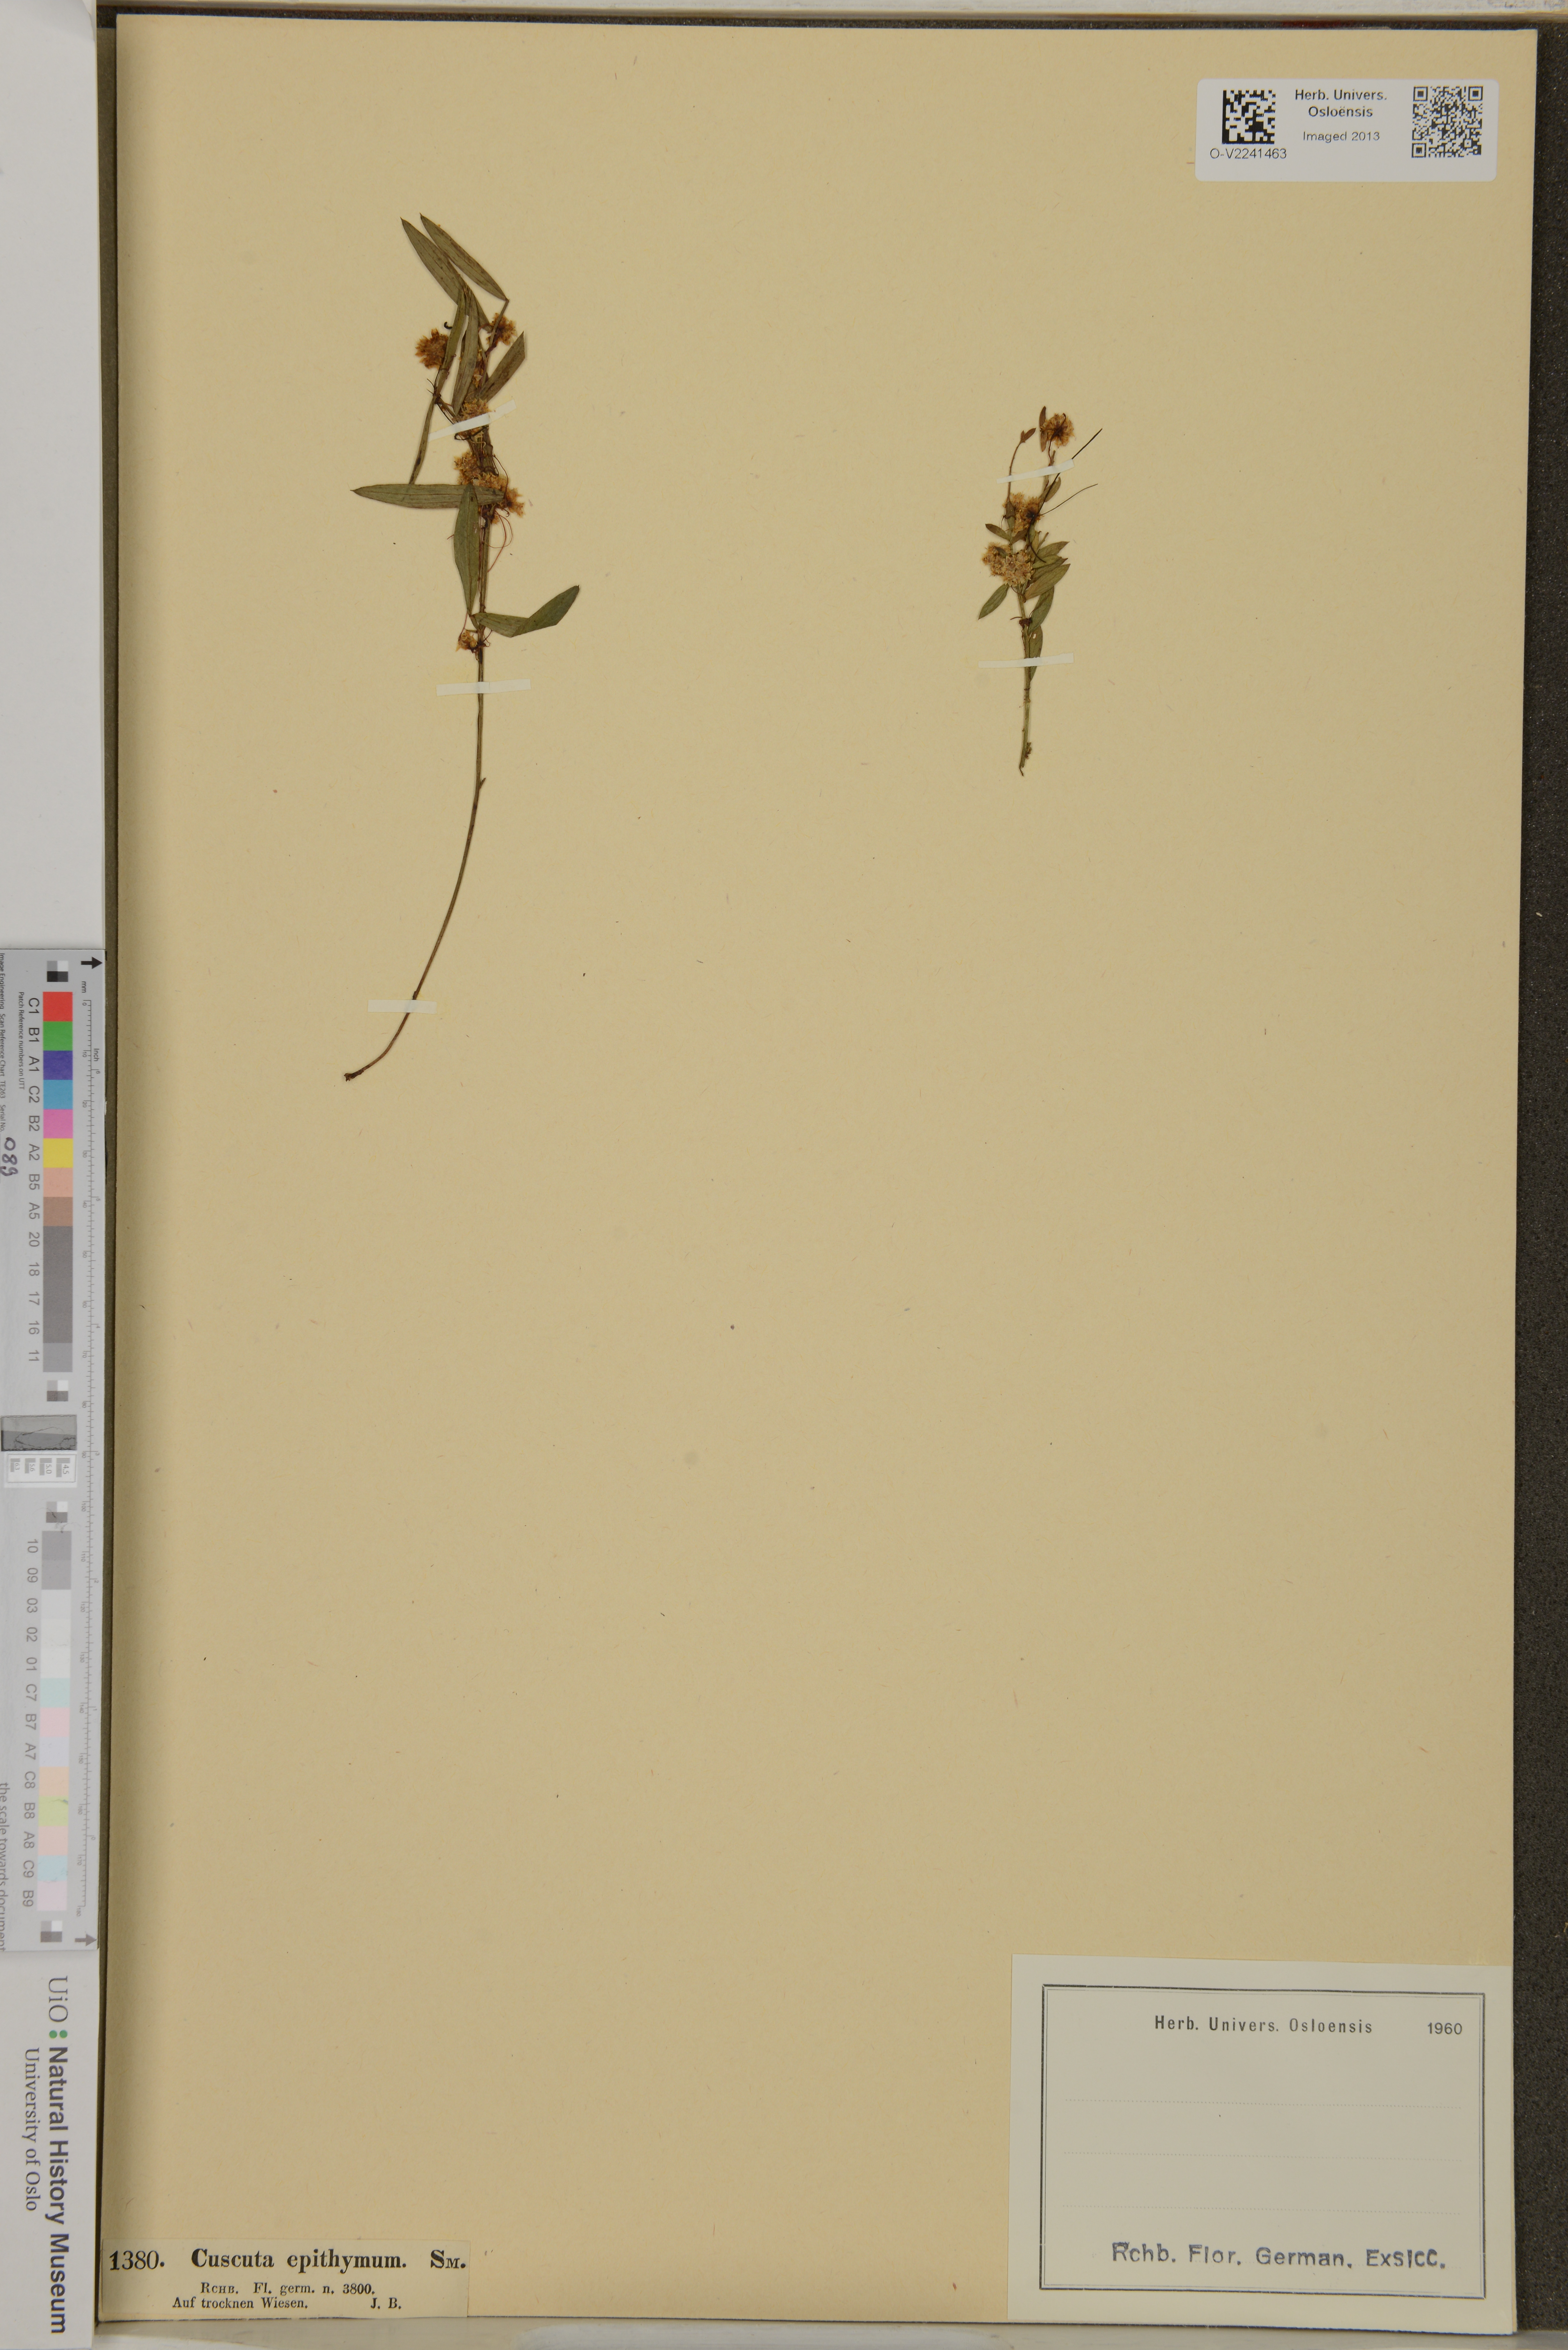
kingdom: Plantae
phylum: Tracheophyta
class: Magnoliopsida
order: Solanales
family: Convolvulaceae
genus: Cuscuta
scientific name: Cuscuta epithymum
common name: Clover dodder
